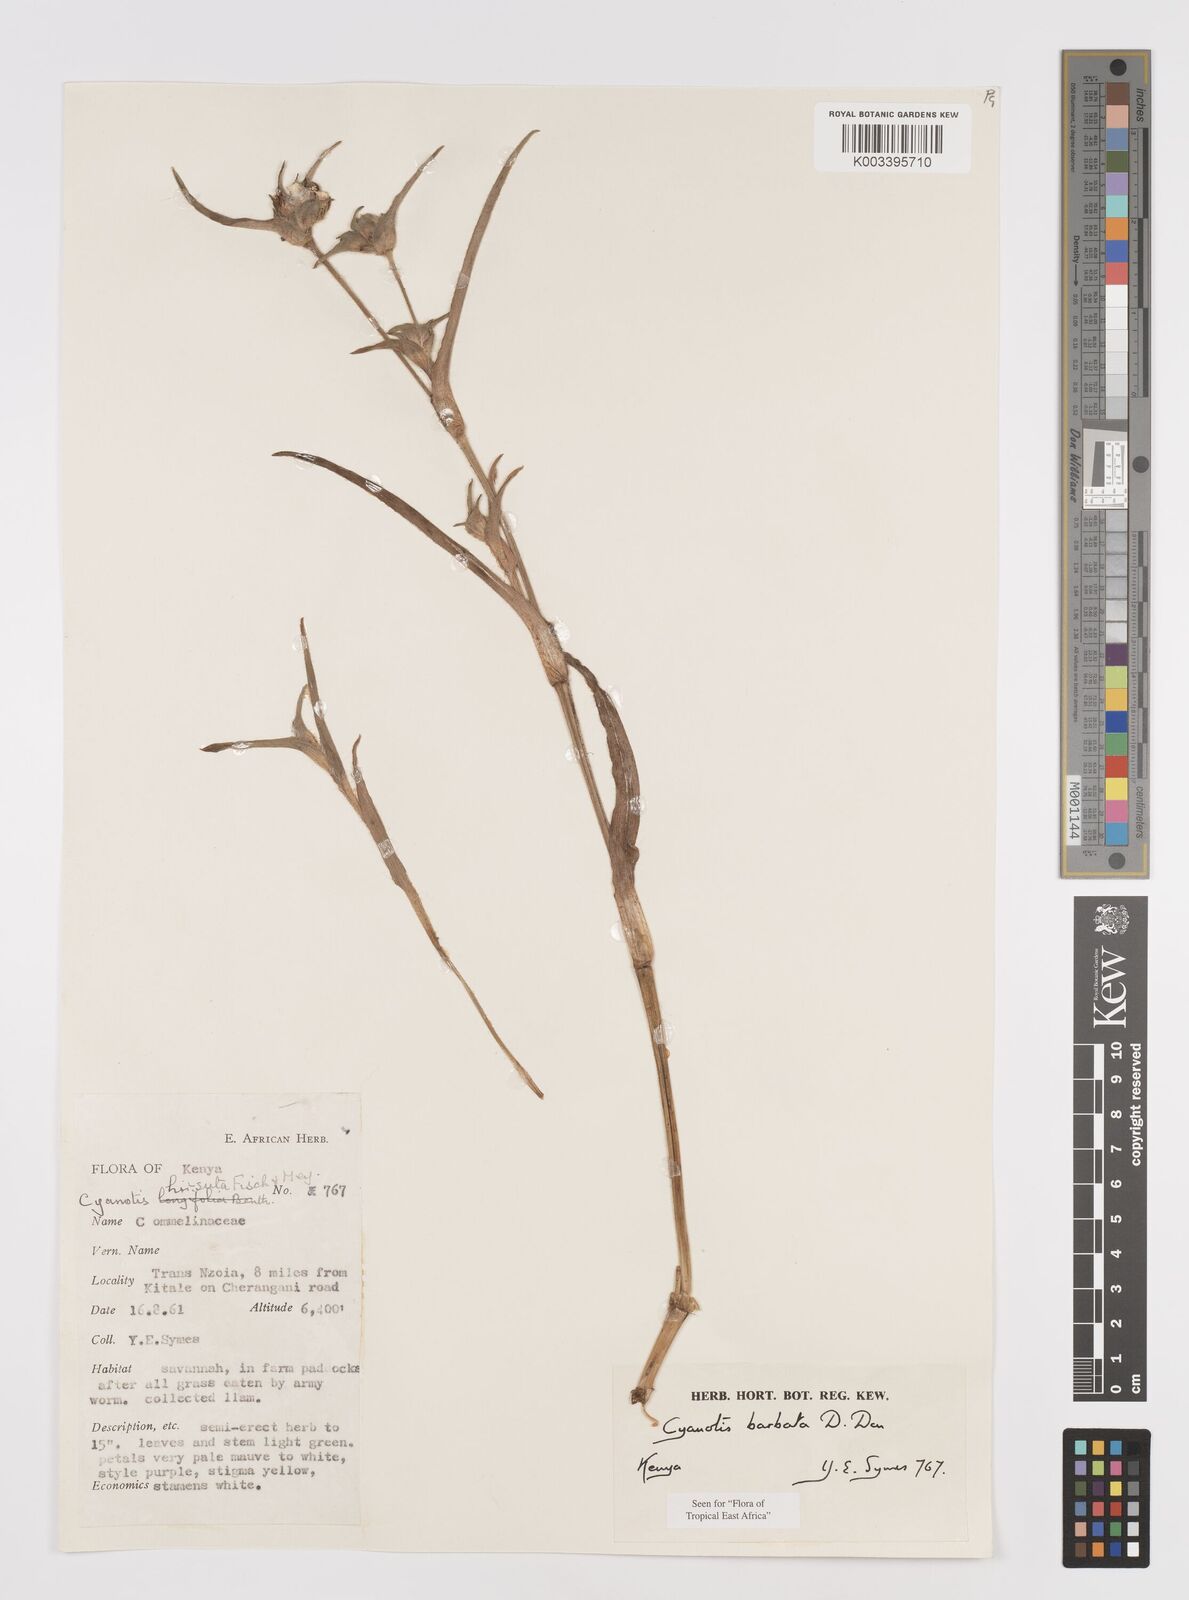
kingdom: Plantae
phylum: Tracheophyta
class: Liliopsida
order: Commelinales
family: Commelinaceae
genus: Cyanotis
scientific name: Cyanotis vaga
